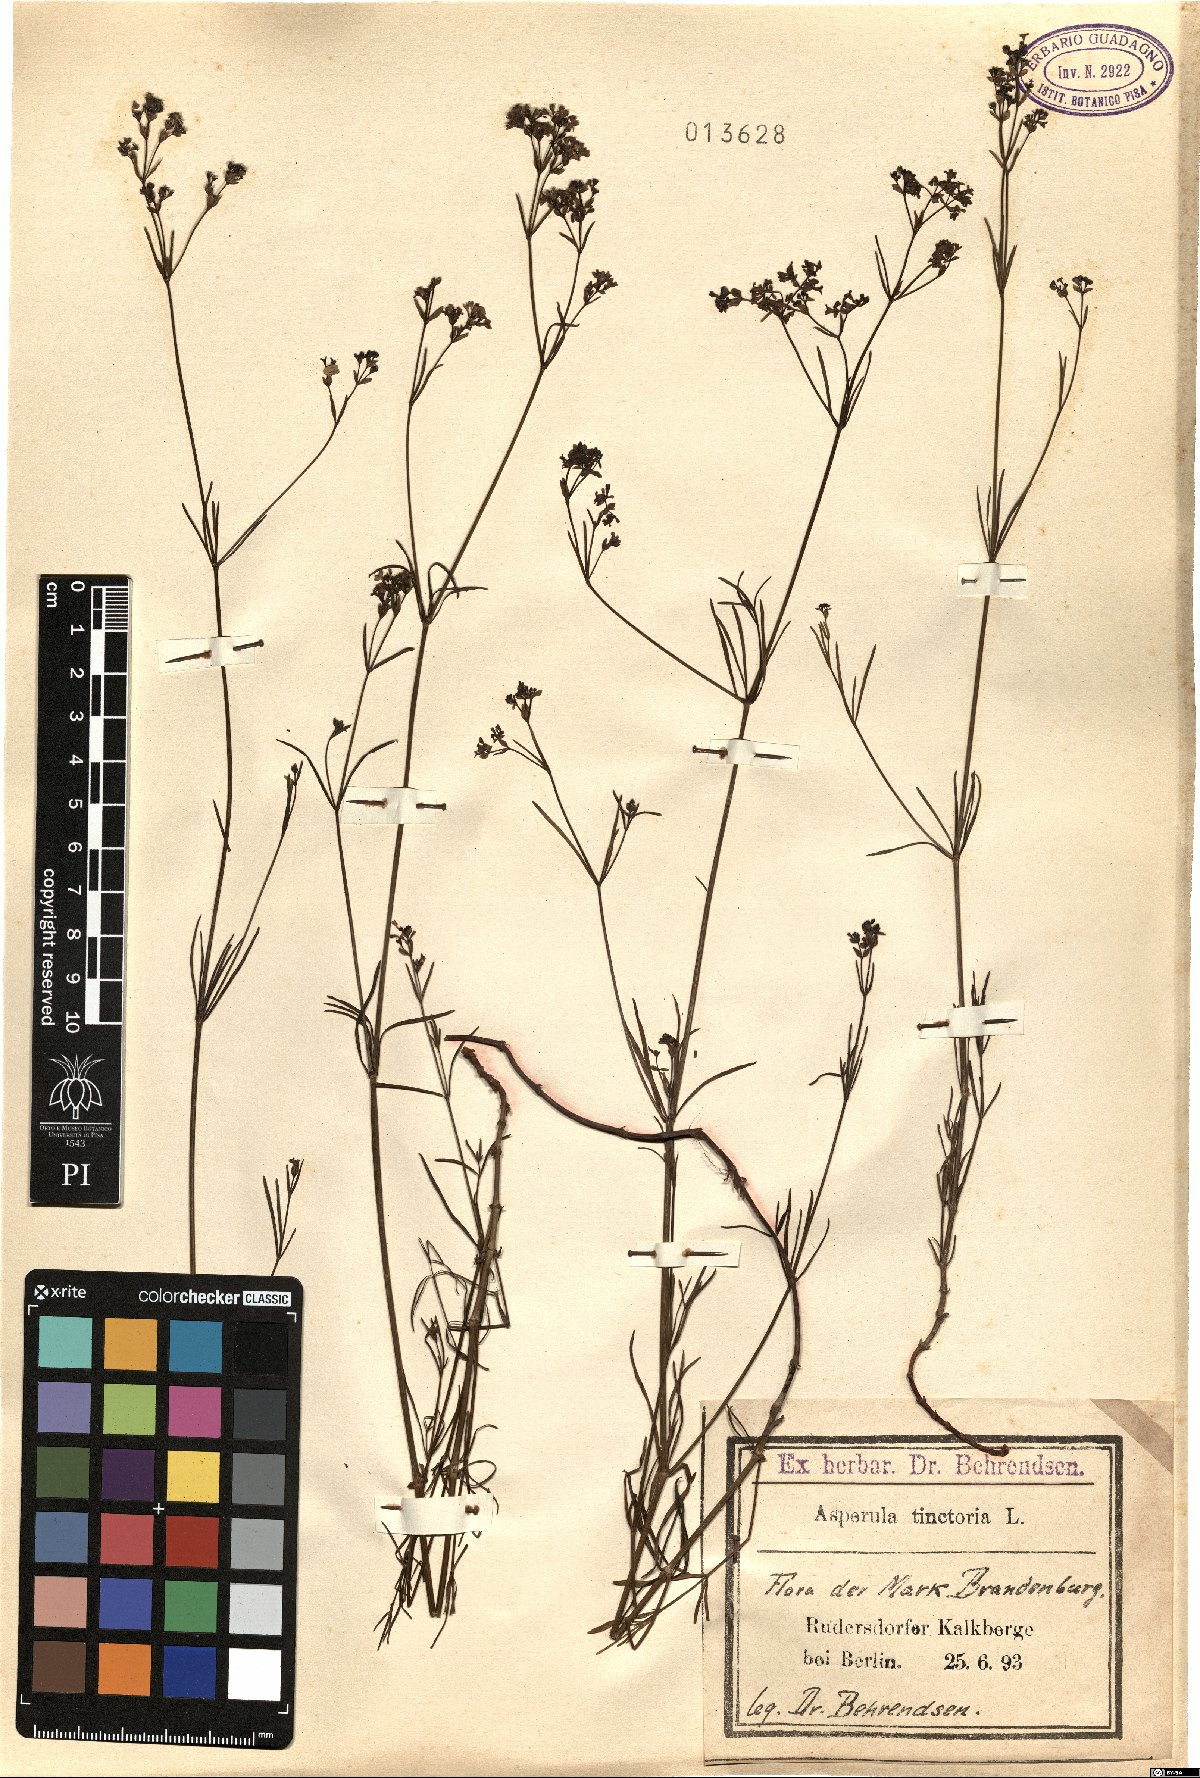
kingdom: Plantae
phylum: Tracheophyta
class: Magnoliopsida
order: Gentianales
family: Rubiaceae
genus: Asperula
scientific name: Asperula tinctoria
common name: Dyer's woodruff
